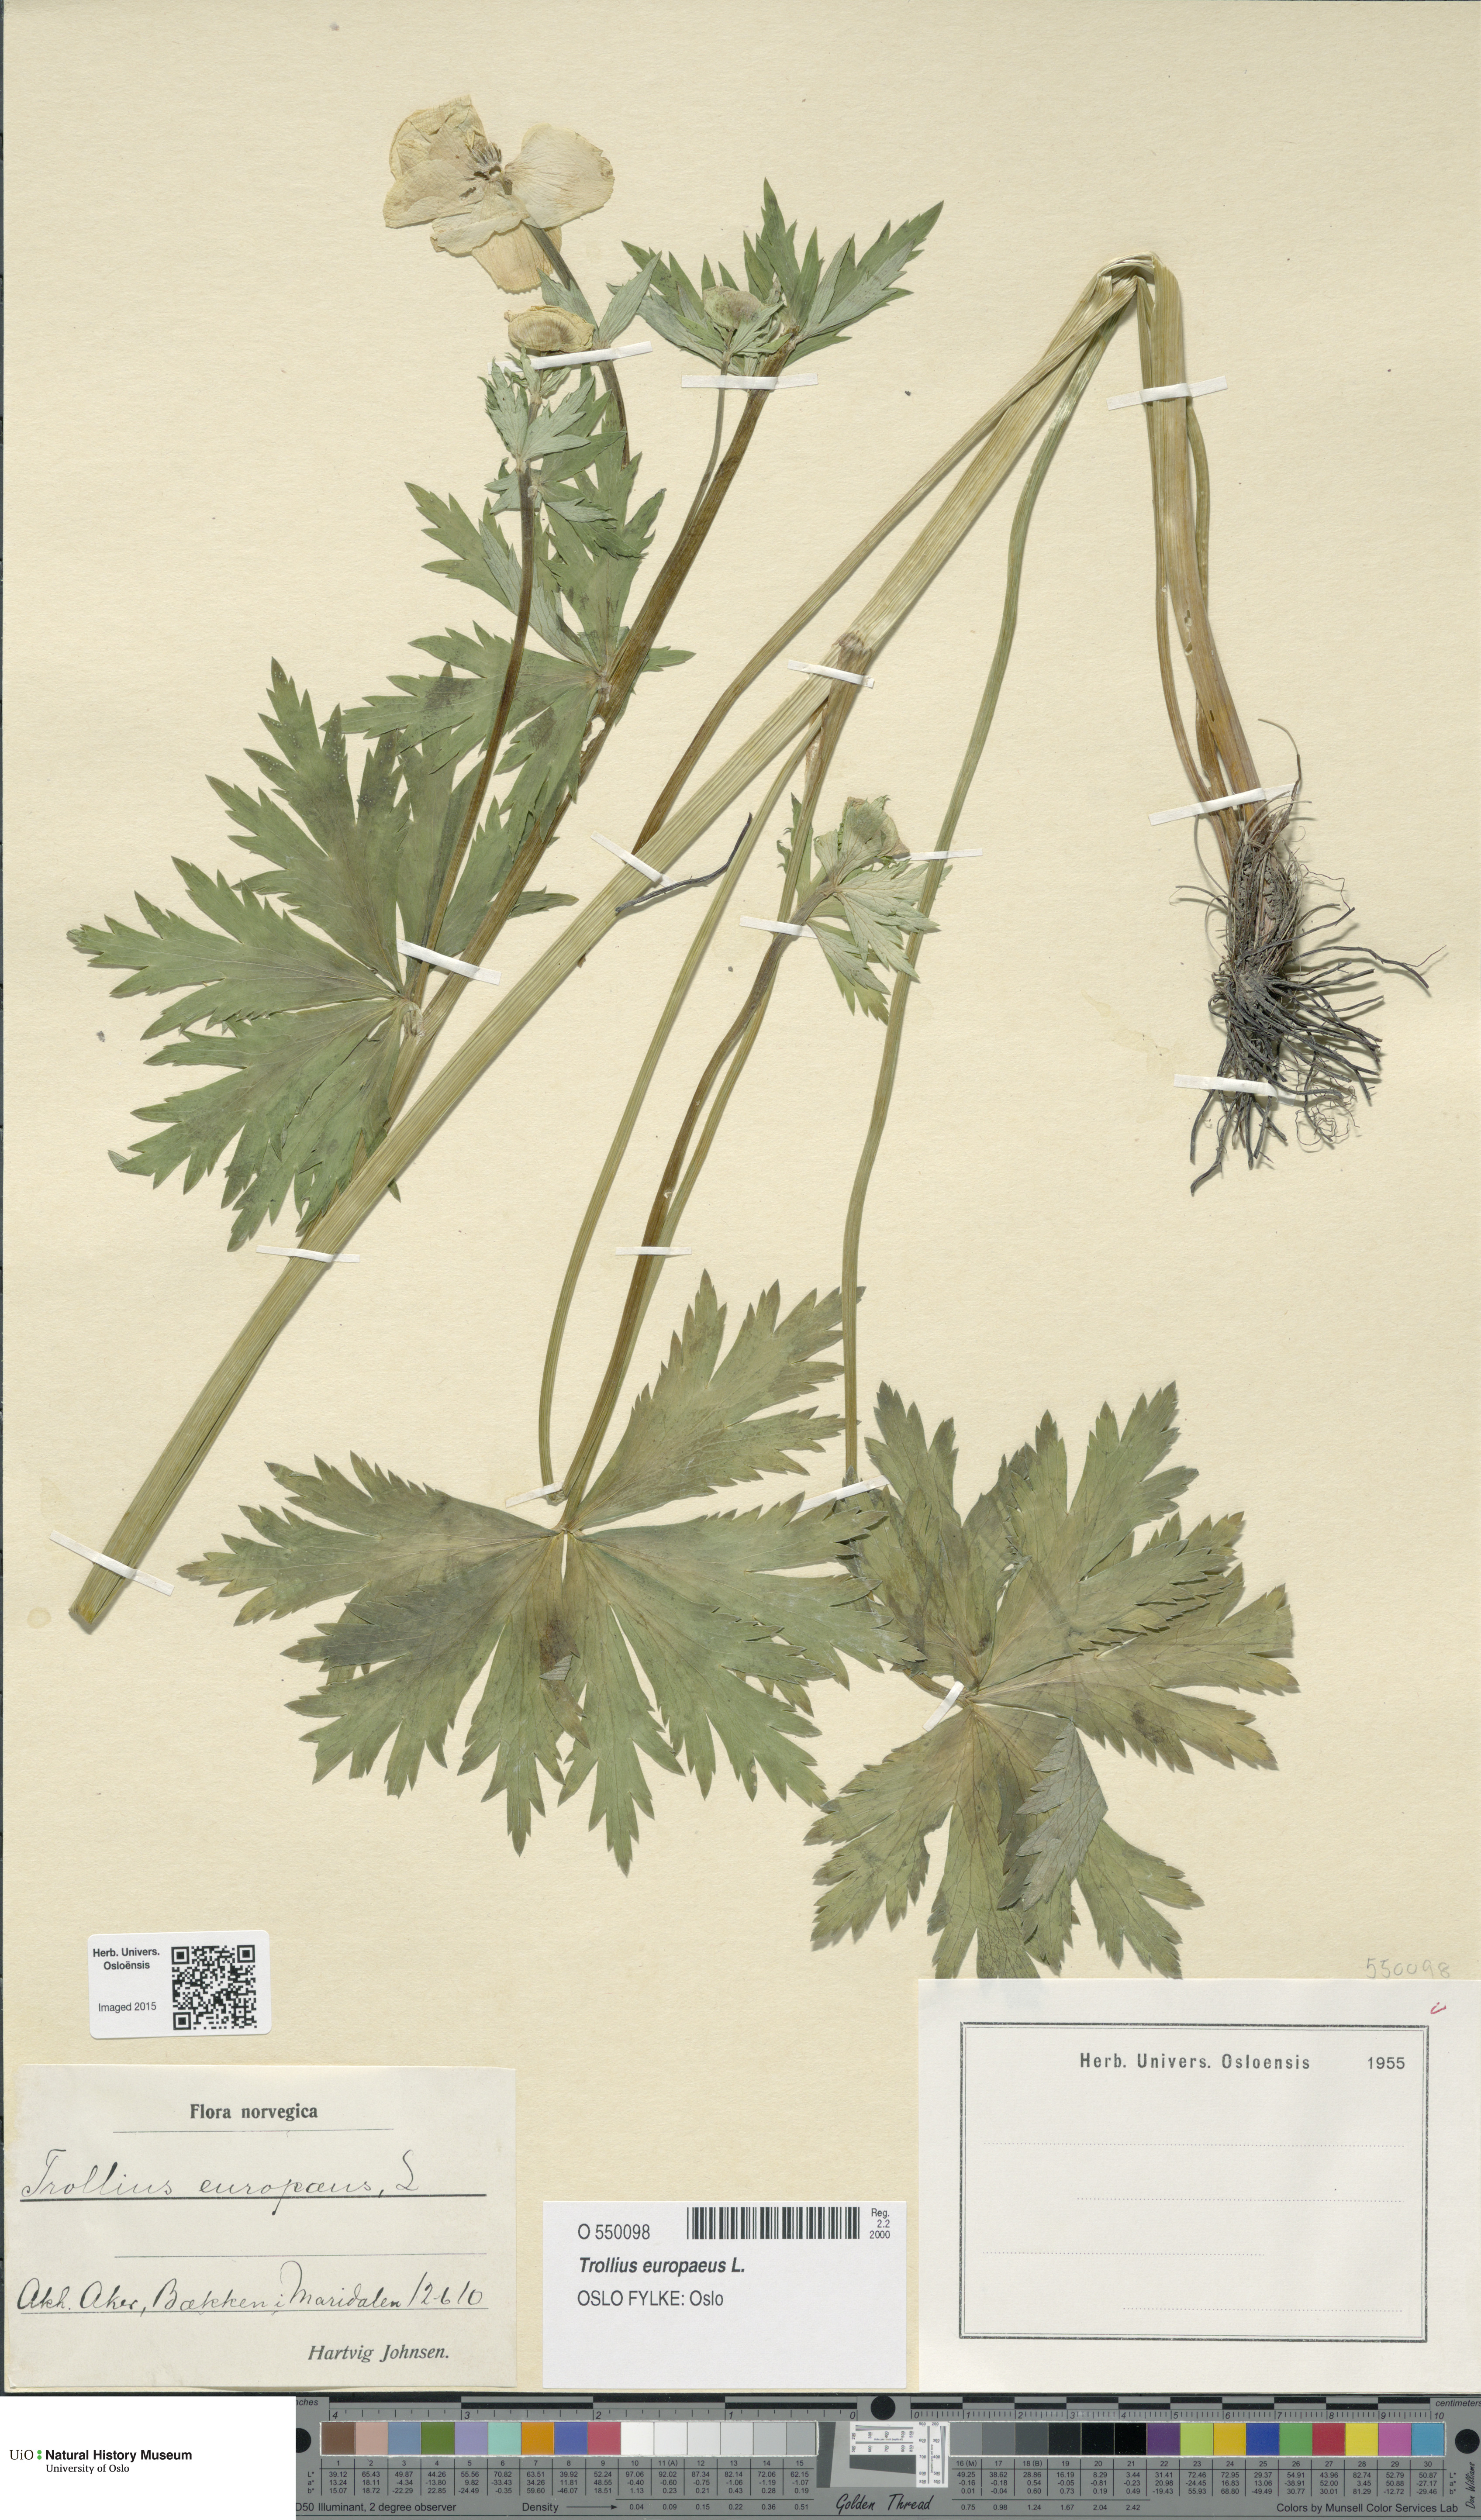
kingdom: Plantae
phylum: Tracheophyta
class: Magnoliopsida
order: Ranunculales
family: Ranunculaceae
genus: Trollius
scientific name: Trollius europaeus
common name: European globeflower
